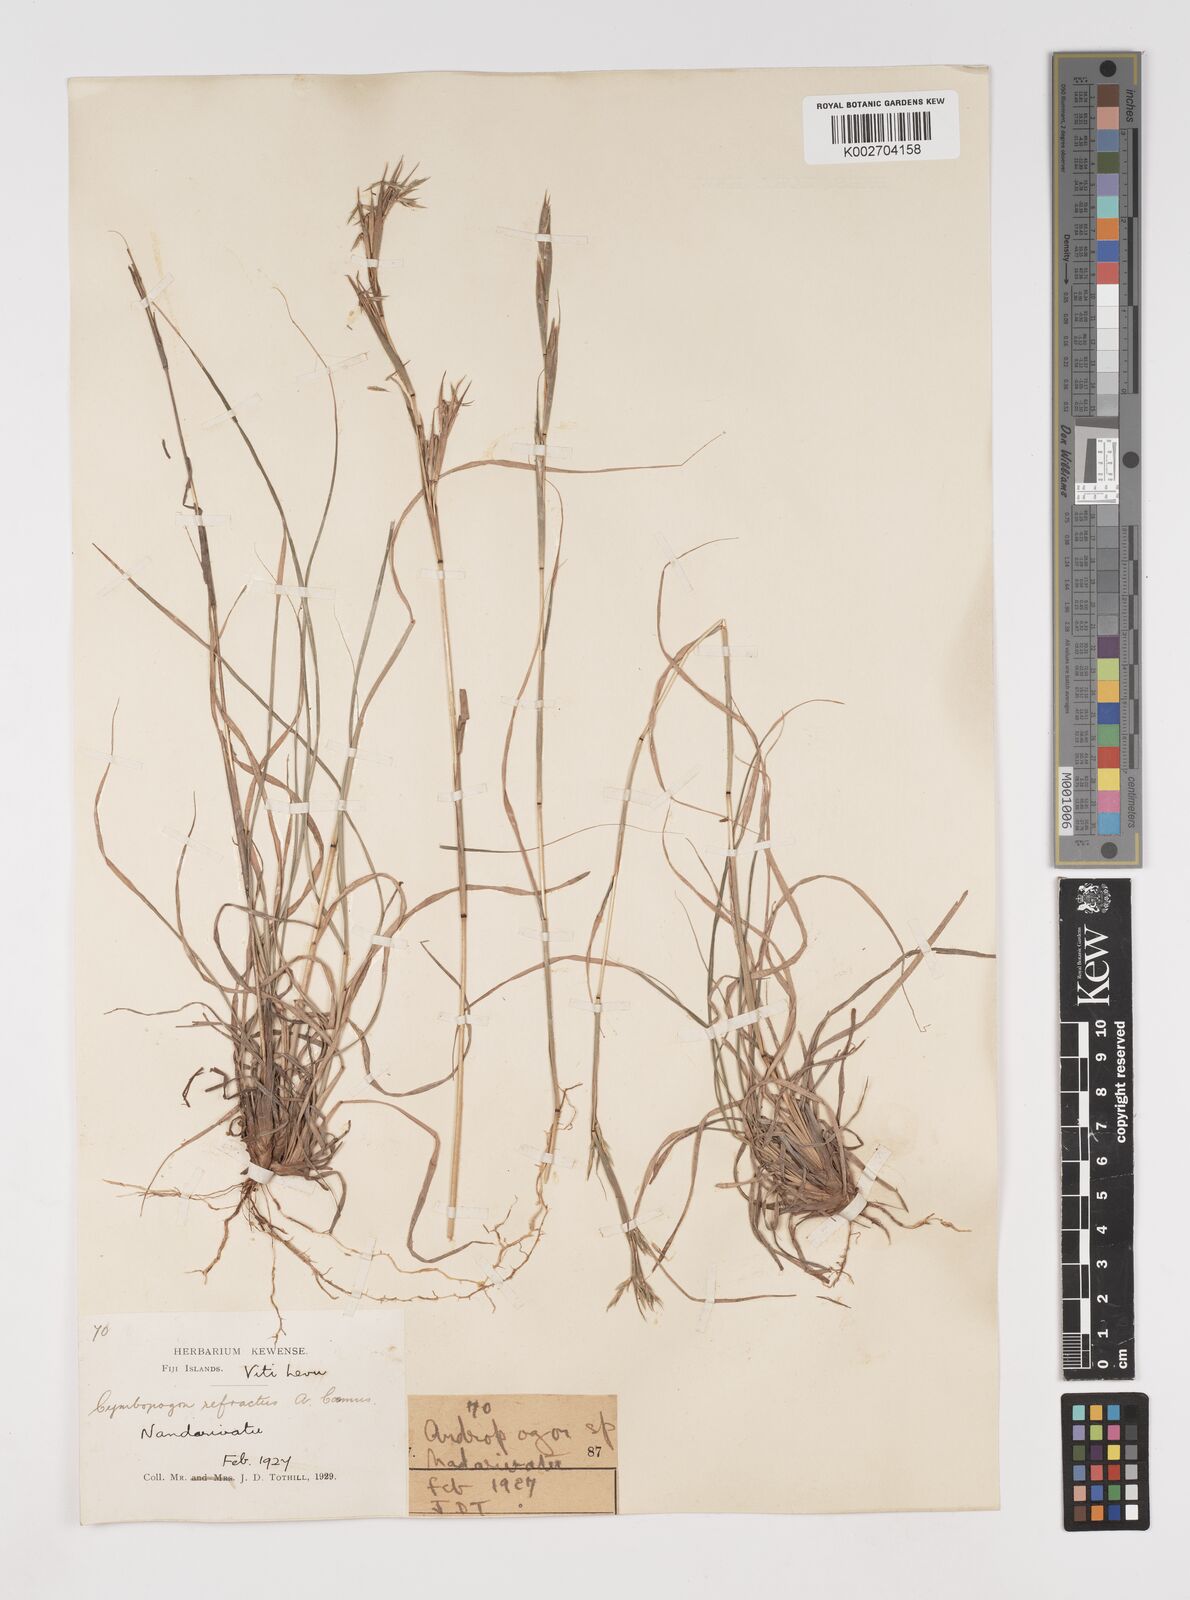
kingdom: Plantae
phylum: Tracheophyta
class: Liliopsida
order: Poales
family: Poaceae
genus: Cymbopogon
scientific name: Cymbopogon refractus
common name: Barbwire grass
